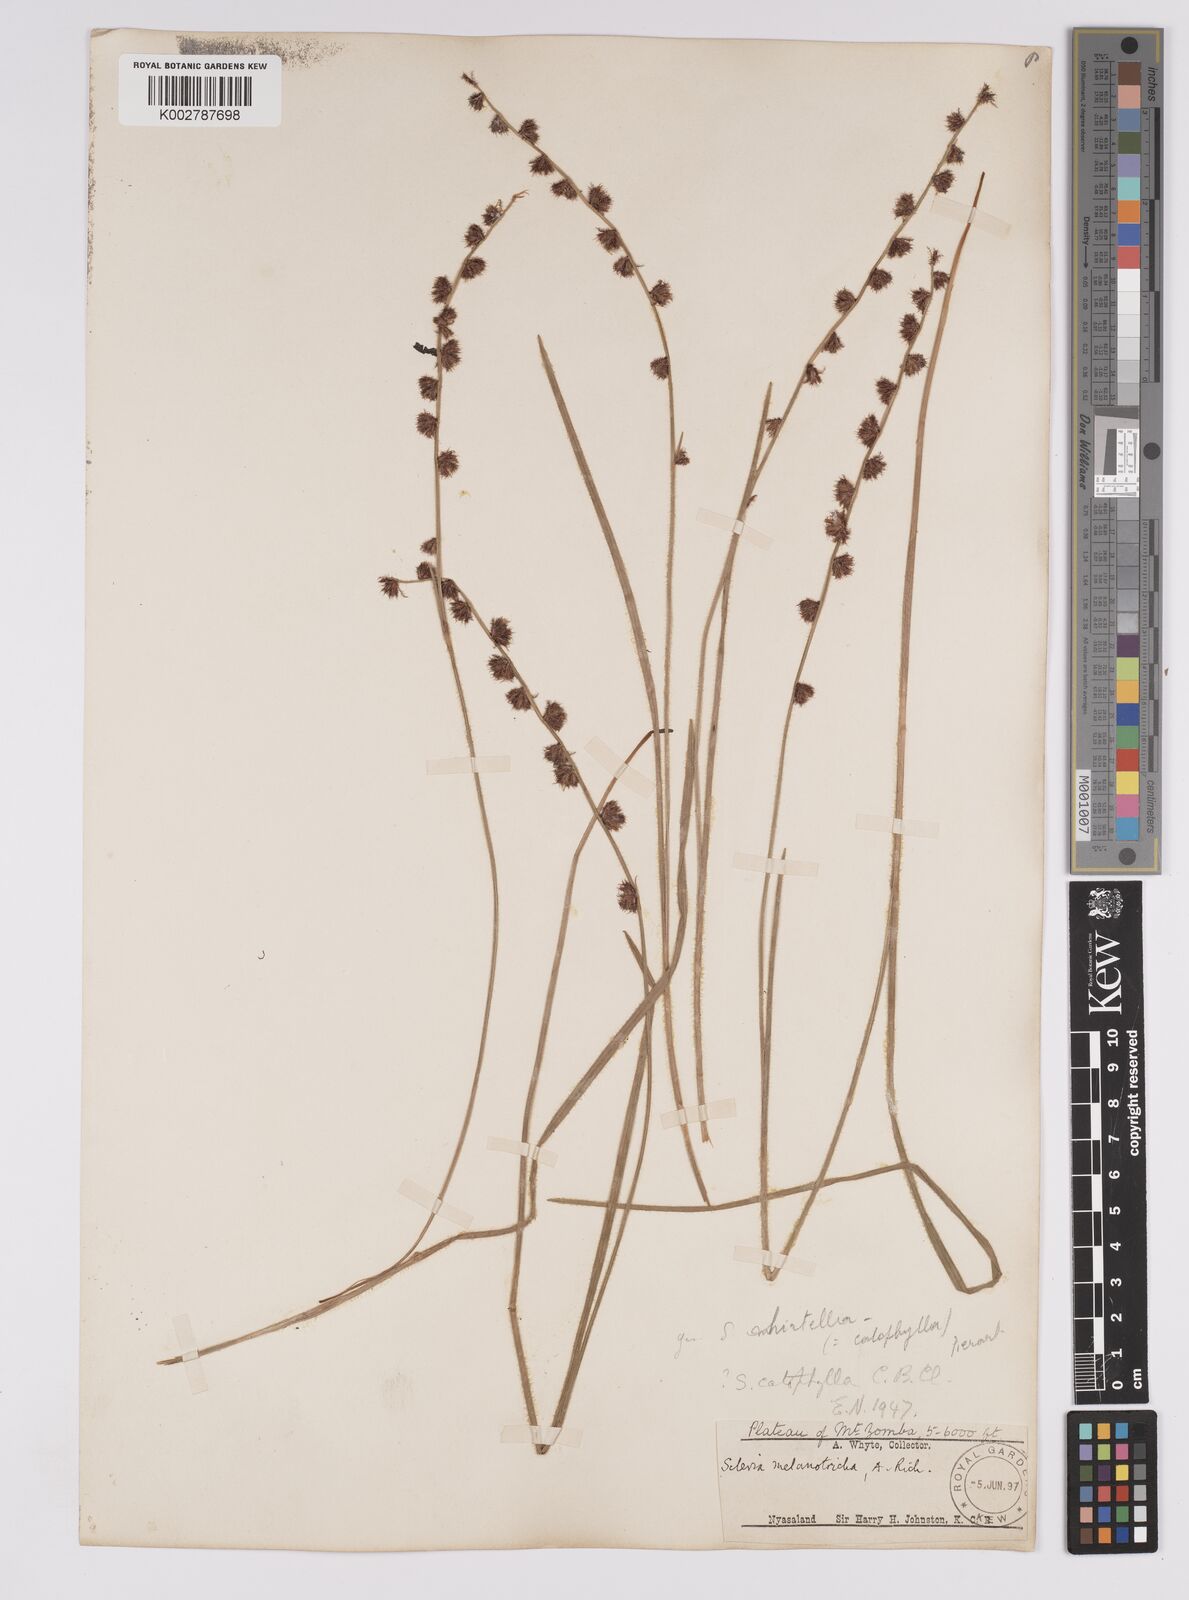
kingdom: Plantae
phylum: Tracheophyta
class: Liliopsida
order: Poales
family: Cyperaceae
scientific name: Cyperaceae
